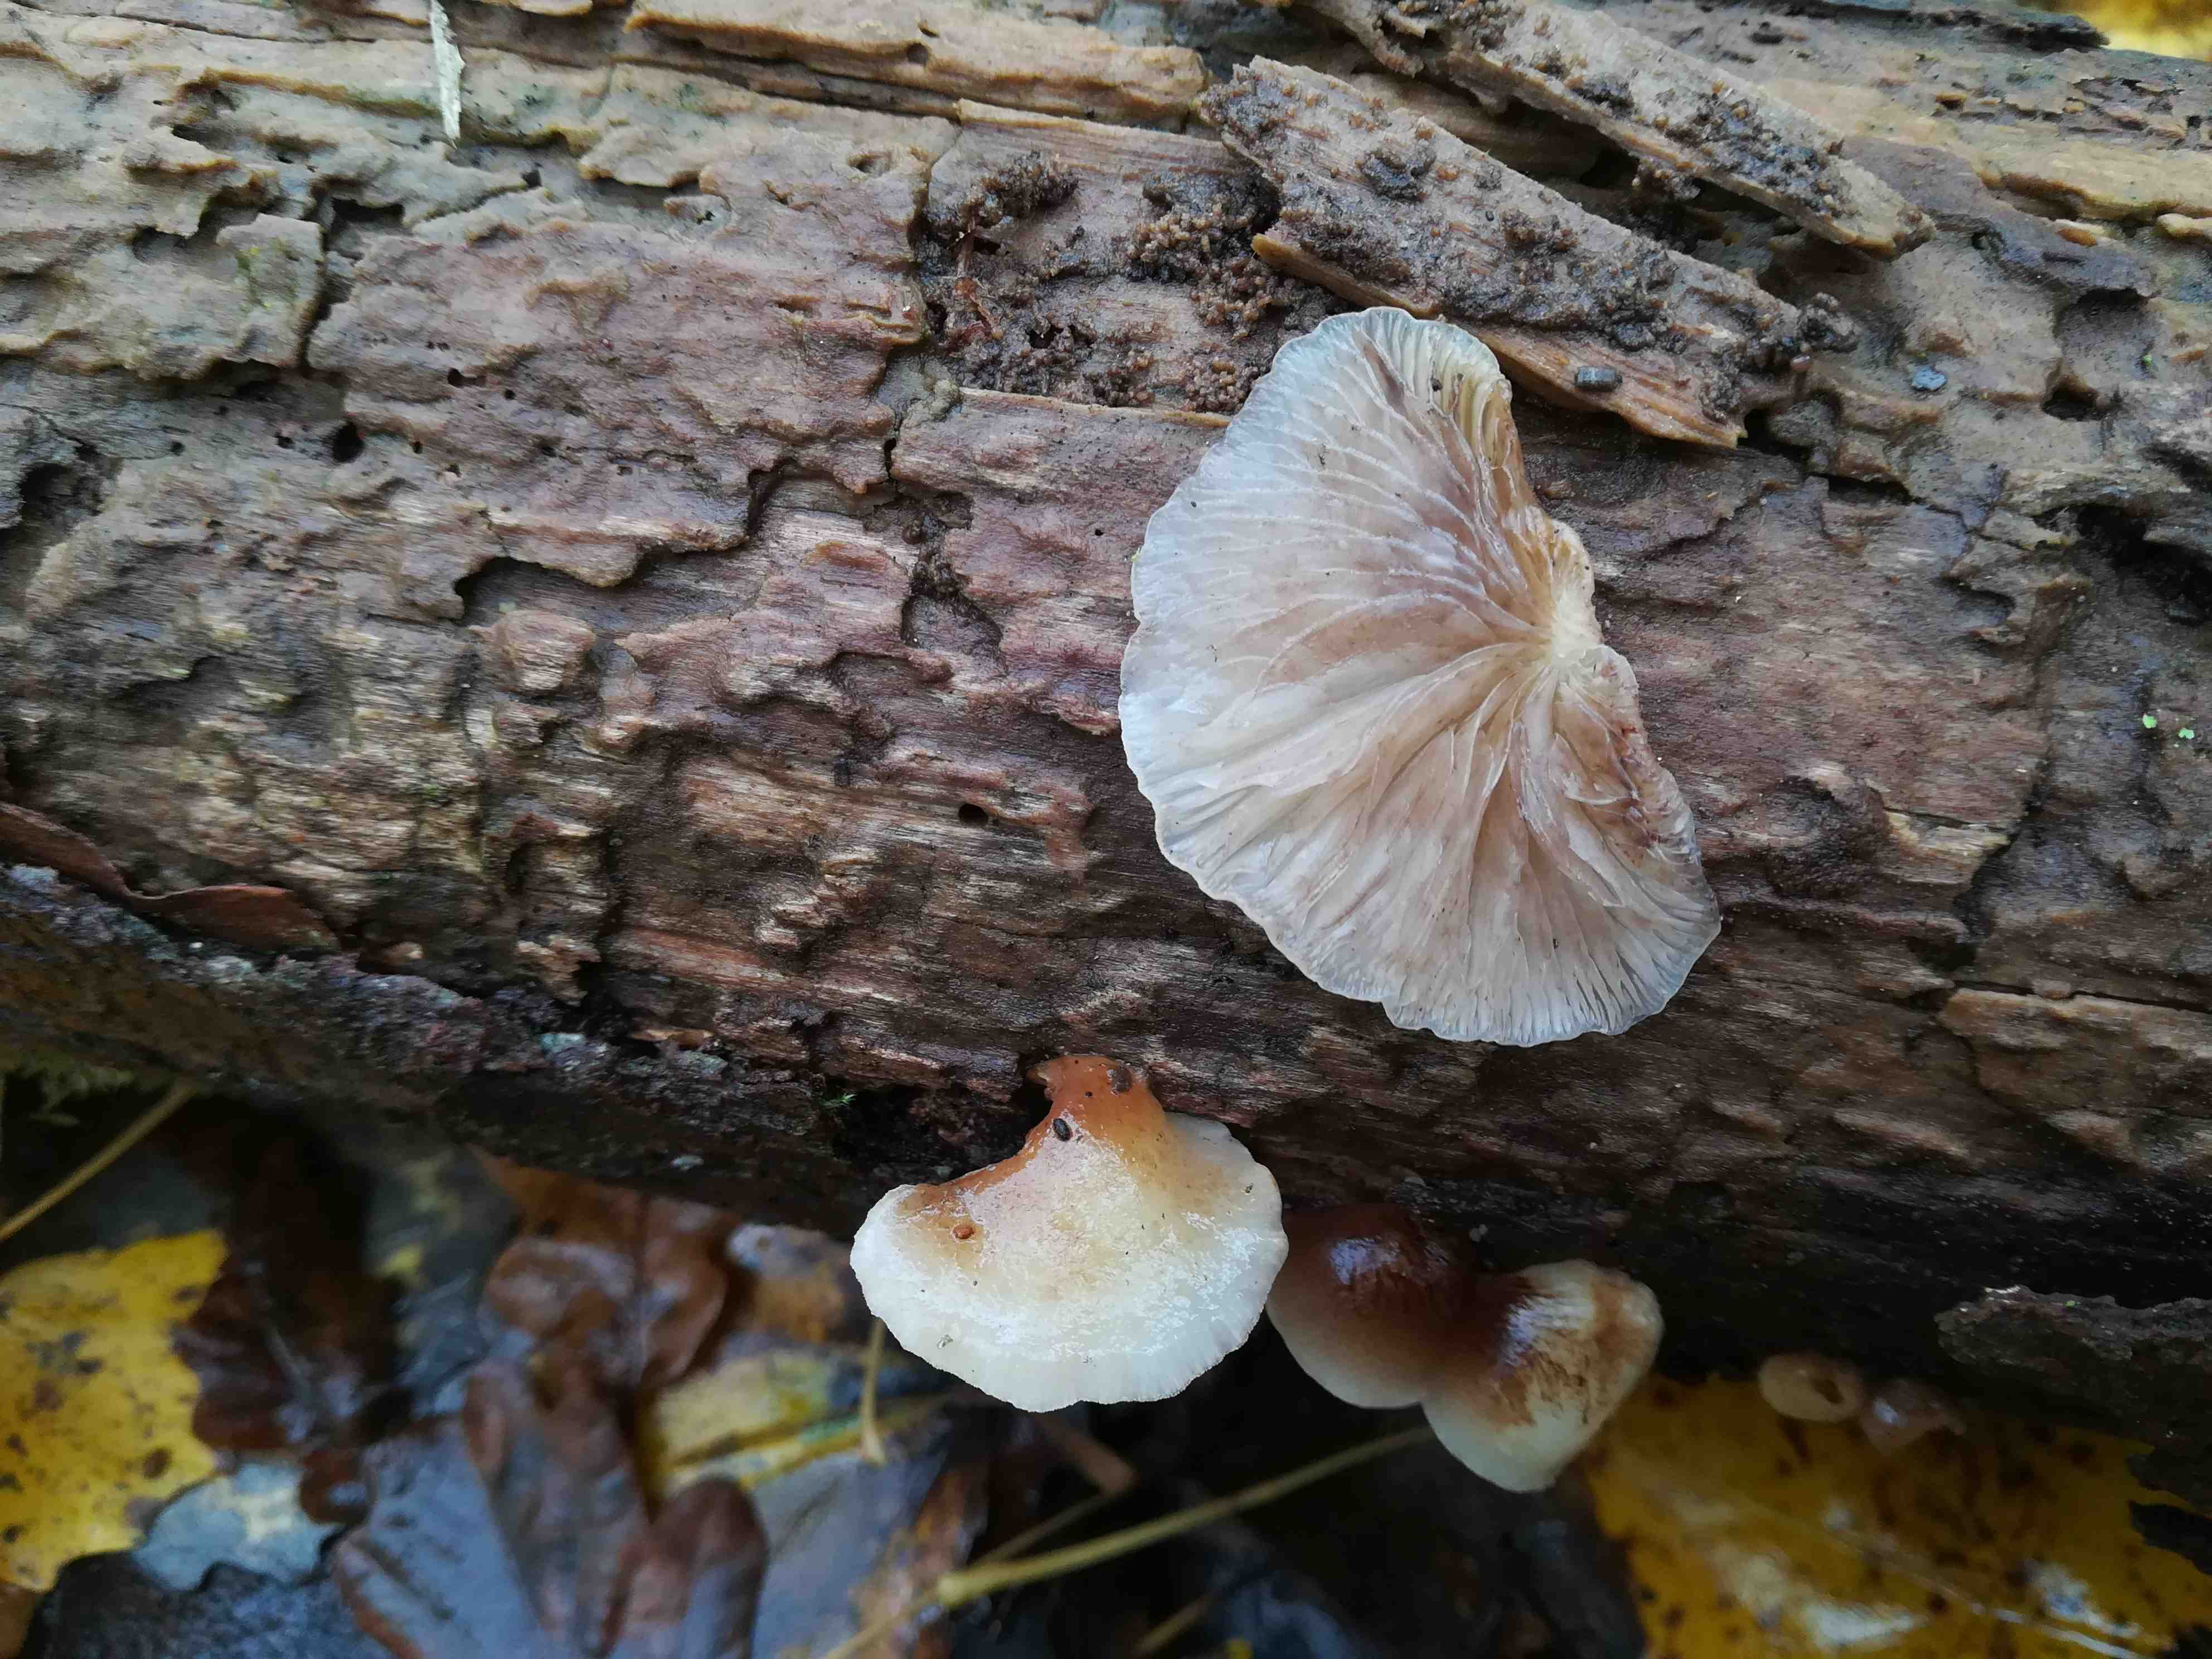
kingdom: Fungi
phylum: Basidiomycota
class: Agaricomycetes
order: Agaricales
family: Crepidotaceae
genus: Crepidotus
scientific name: Crepidotus mollis
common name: blød muslingesvamp
